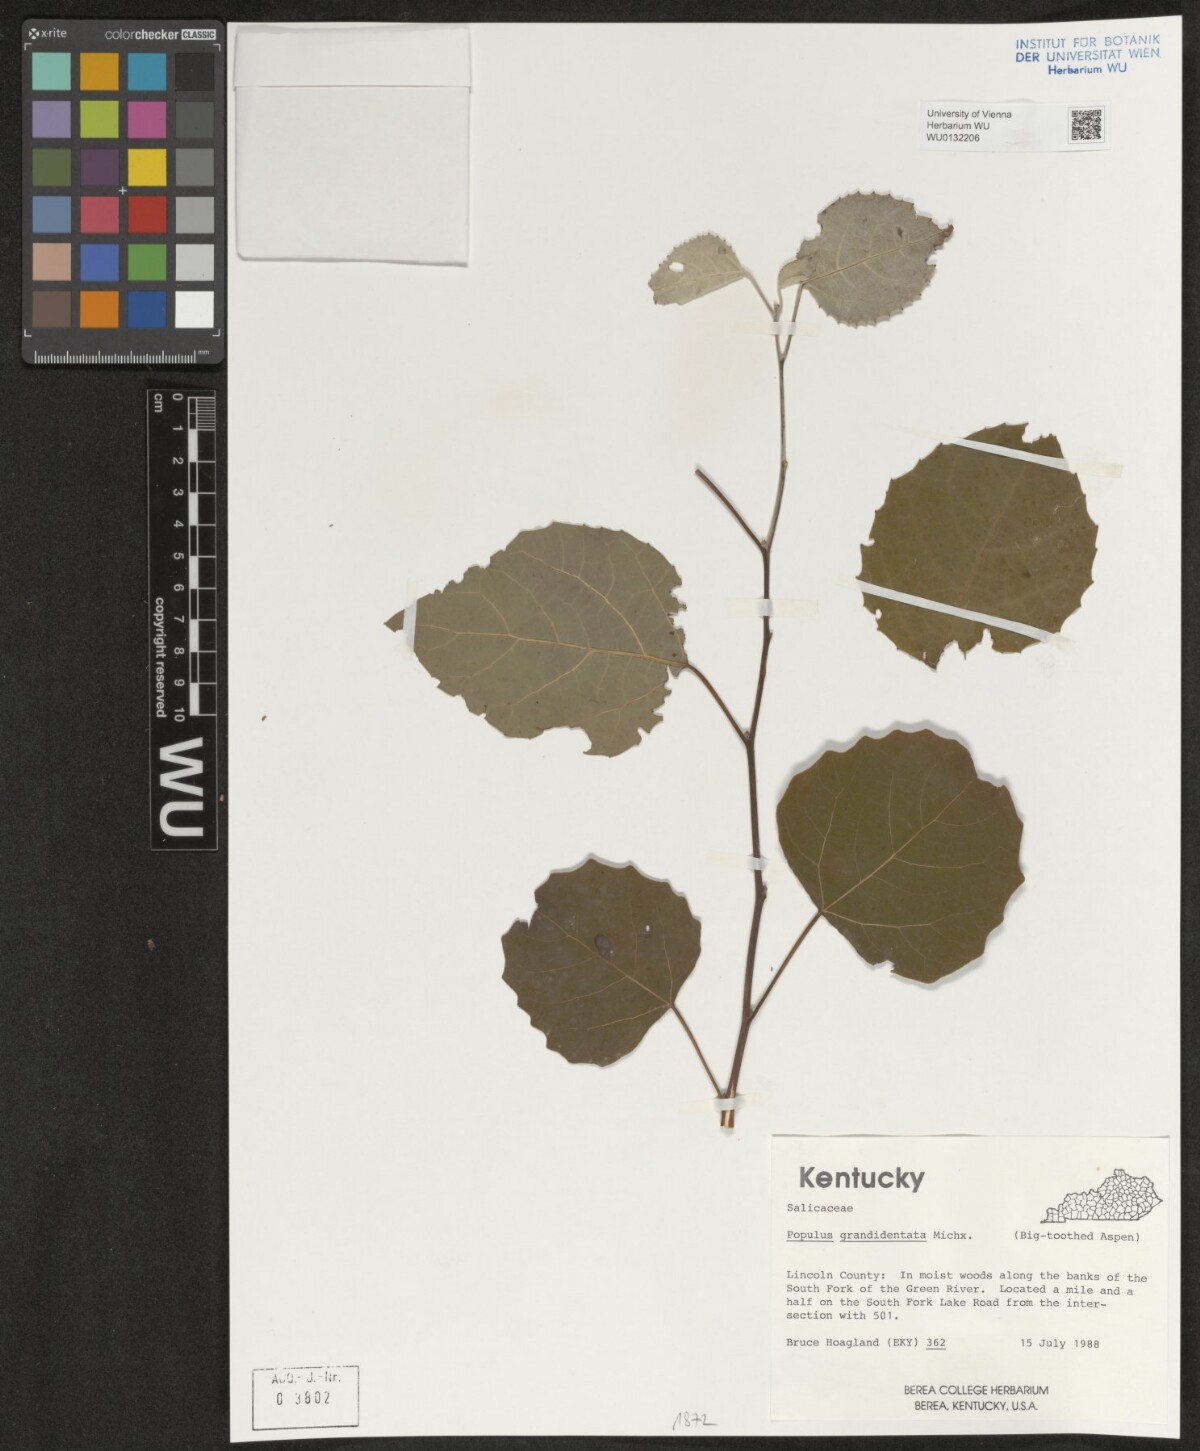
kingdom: Plantae
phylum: Tracheophyta
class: Magnoliopsida
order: Malpighiales
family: Salicaceae
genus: Populus
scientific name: Populus grandidentata
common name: Bigtooth aspen
